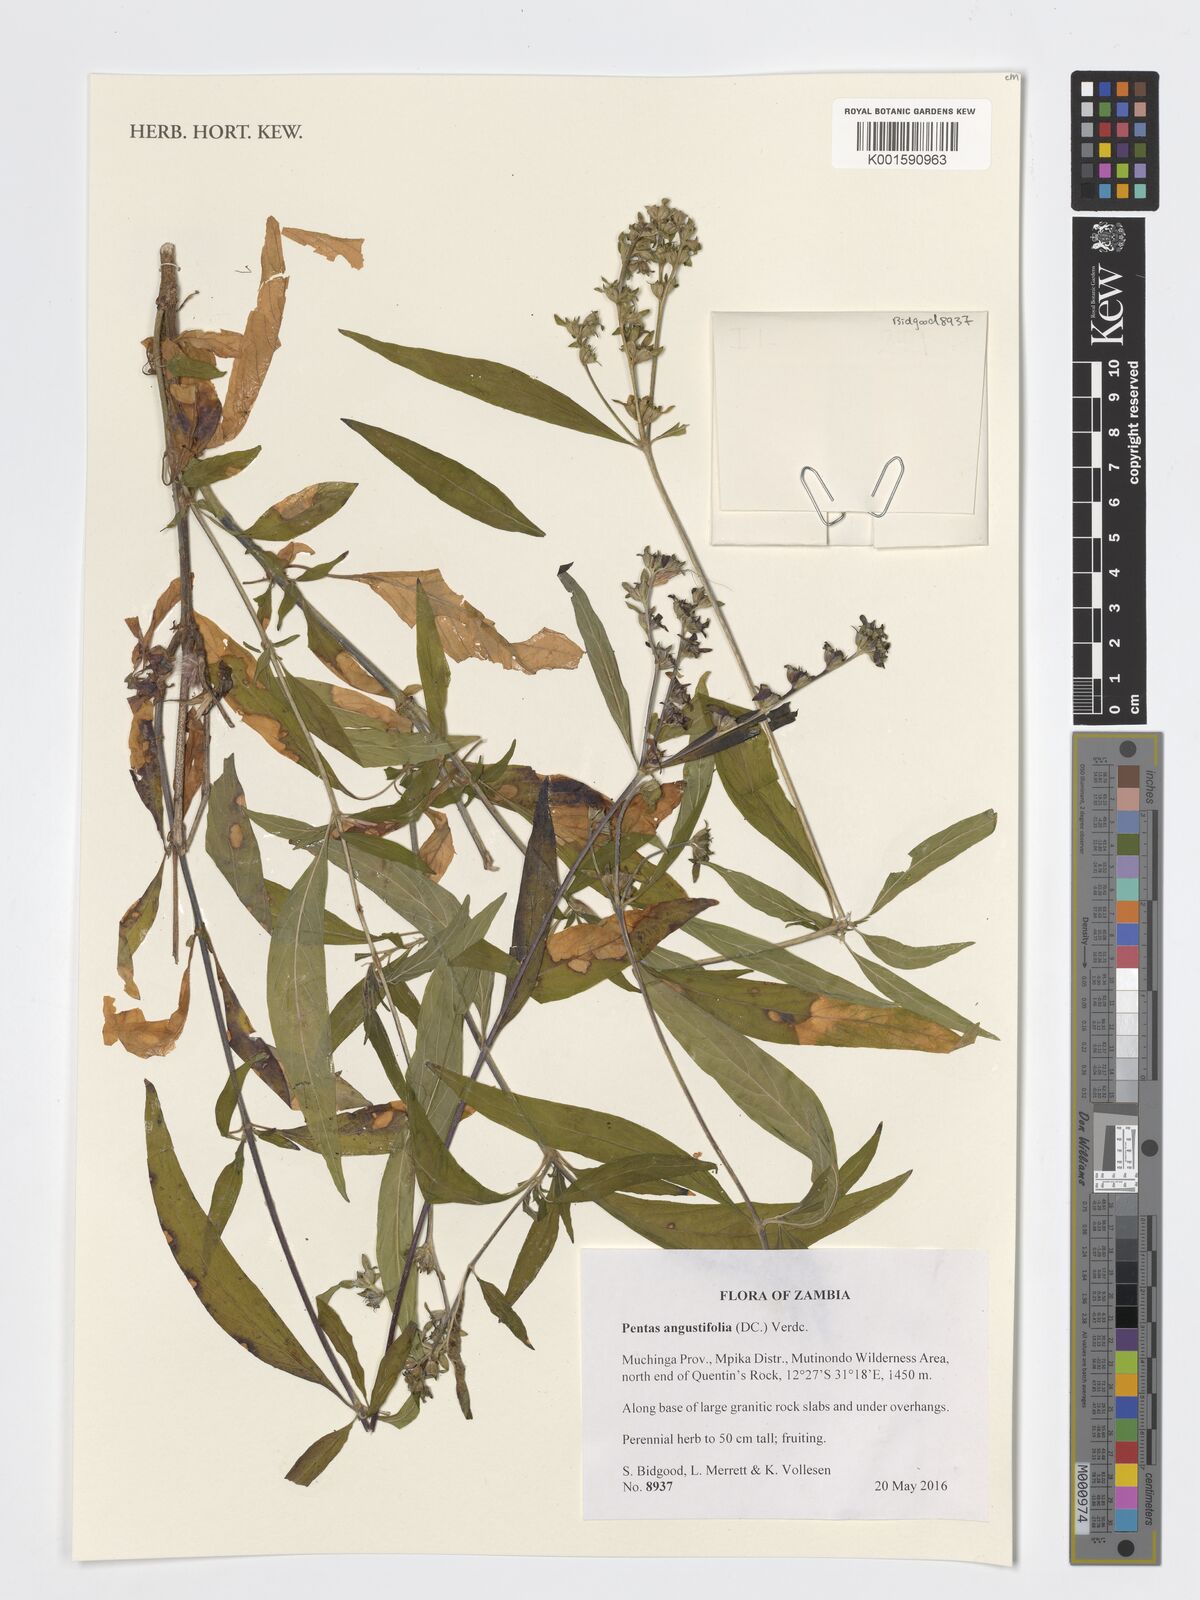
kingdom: Plantae
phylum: Tracheophyta
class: Magnoliopsida
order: Gentianales
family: Rubiaceae
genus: Pentas
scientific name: Pentas angustifolia
